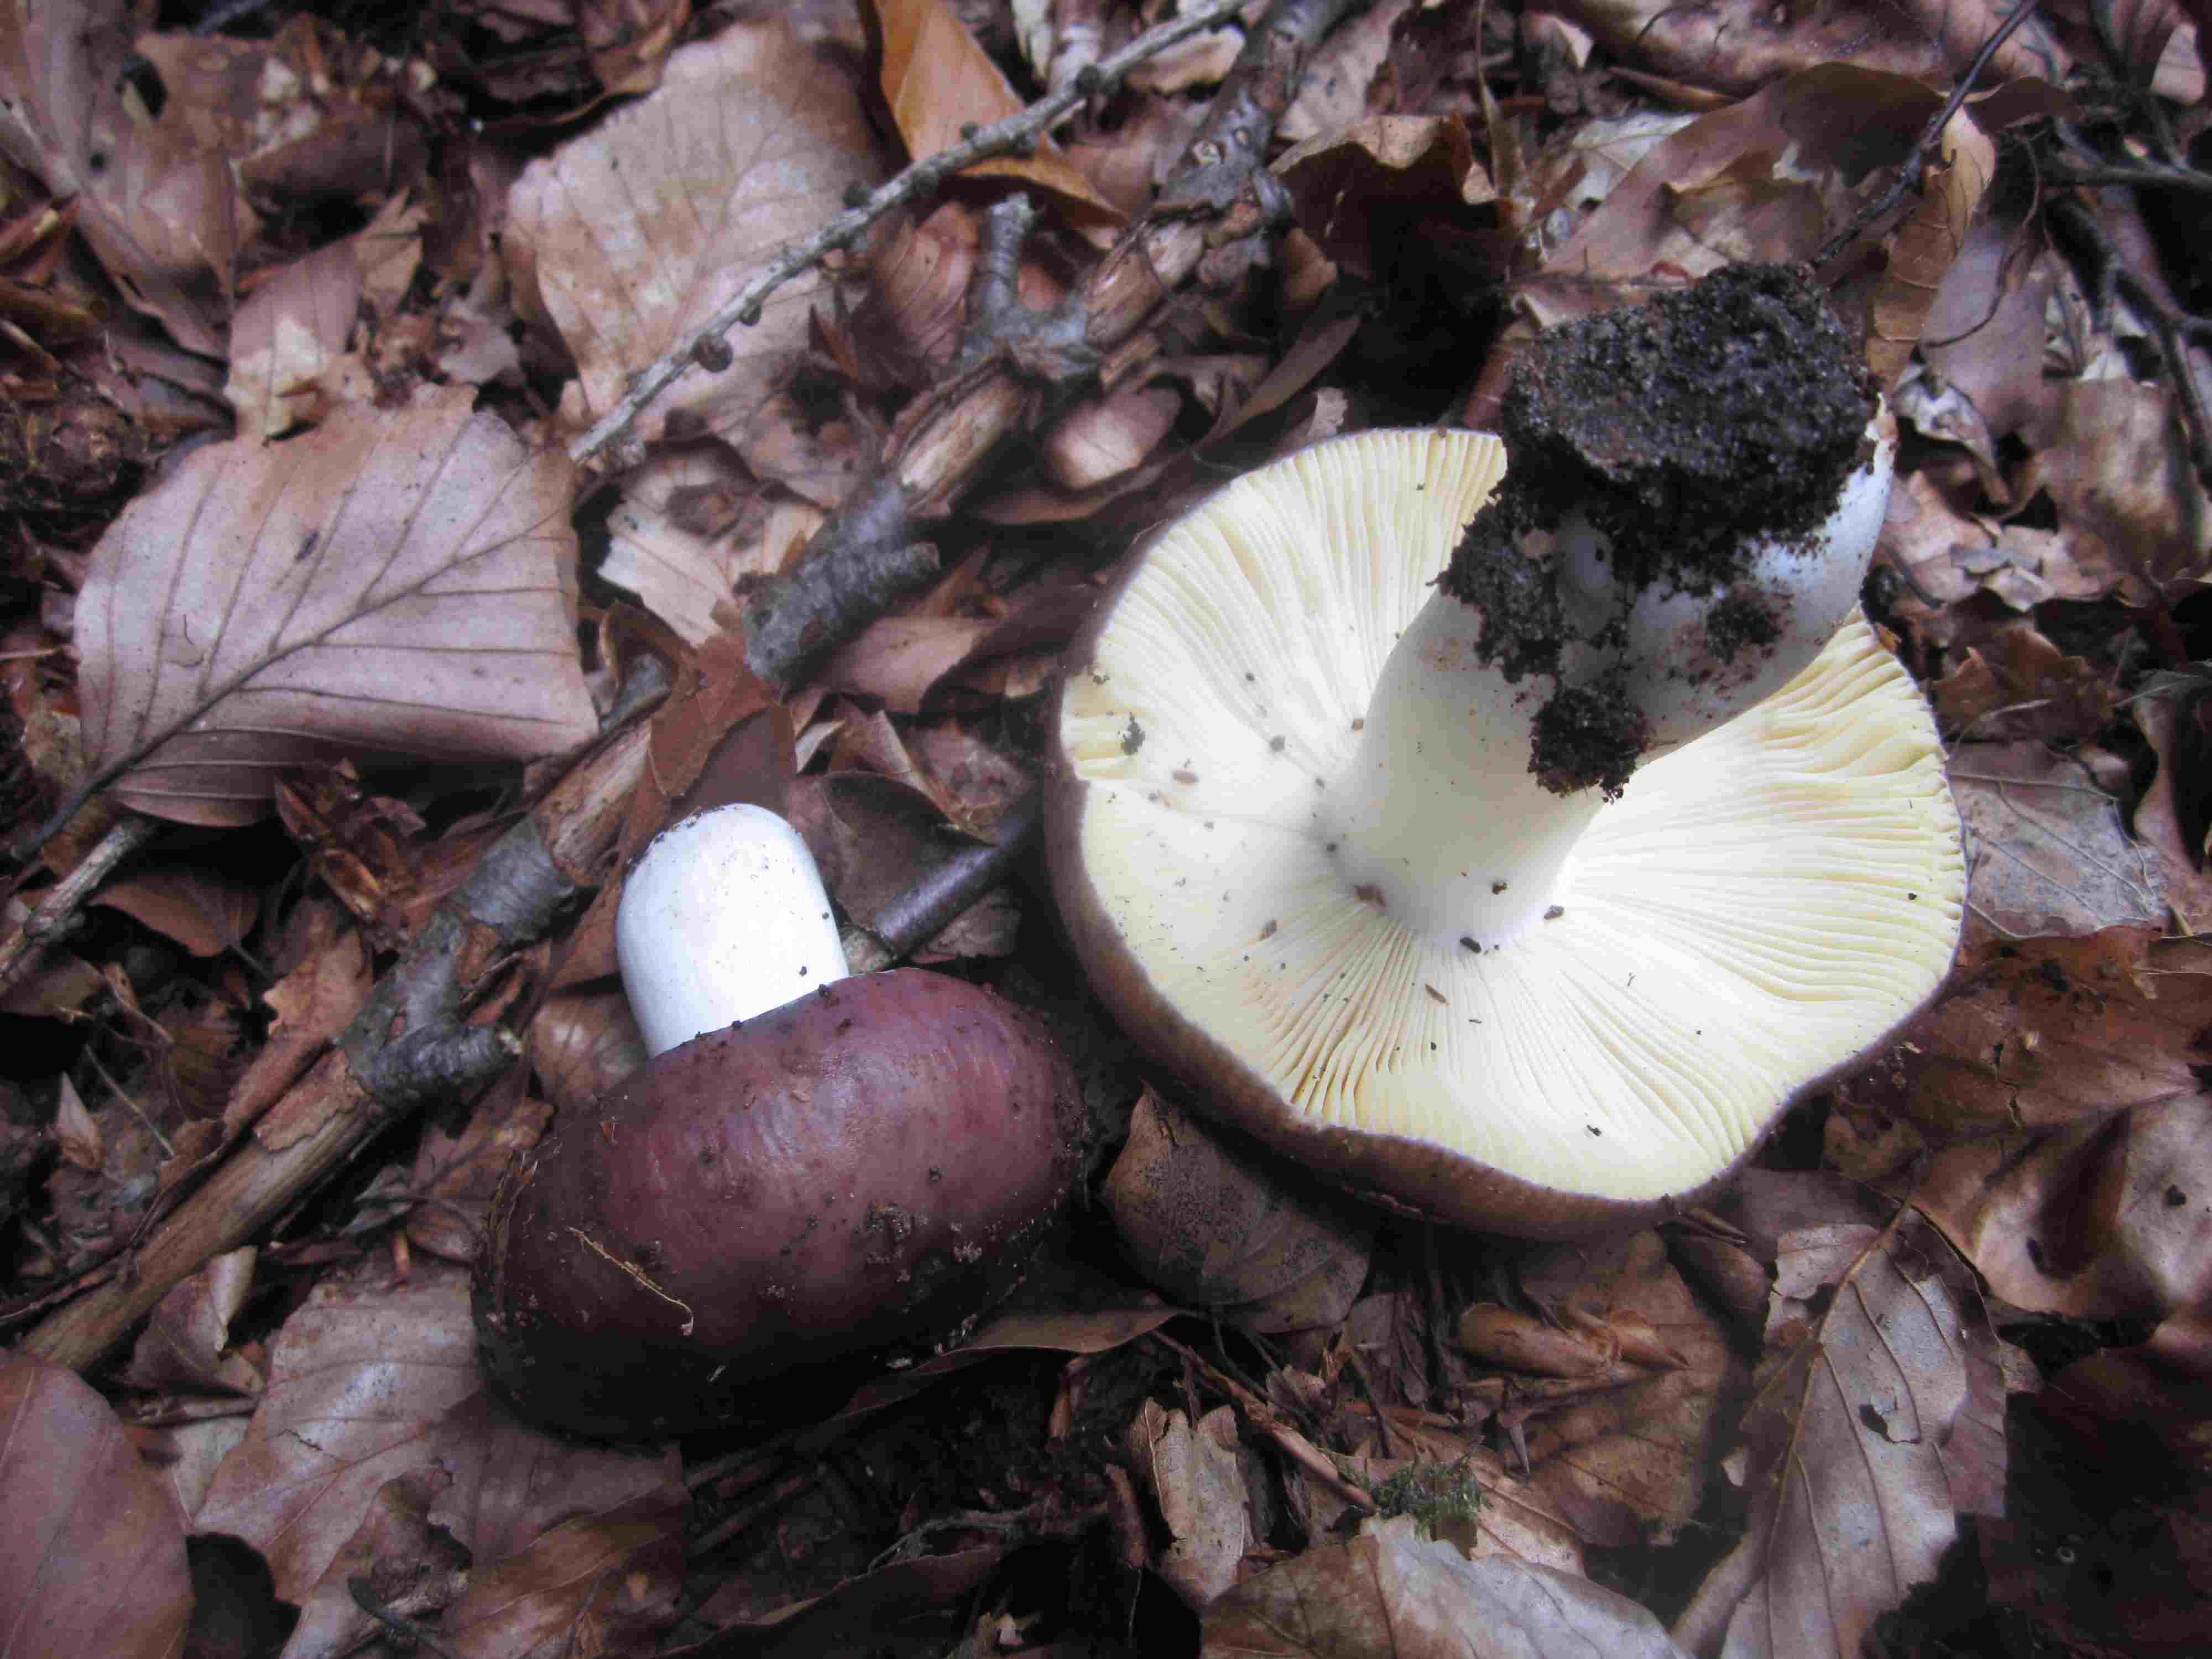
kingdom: Fungi
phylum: Basidiomycota
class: Agaricomycetes
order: Russulales
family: Russulaceae
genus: Russula
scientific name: Russula romellii
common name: romells skørhat
